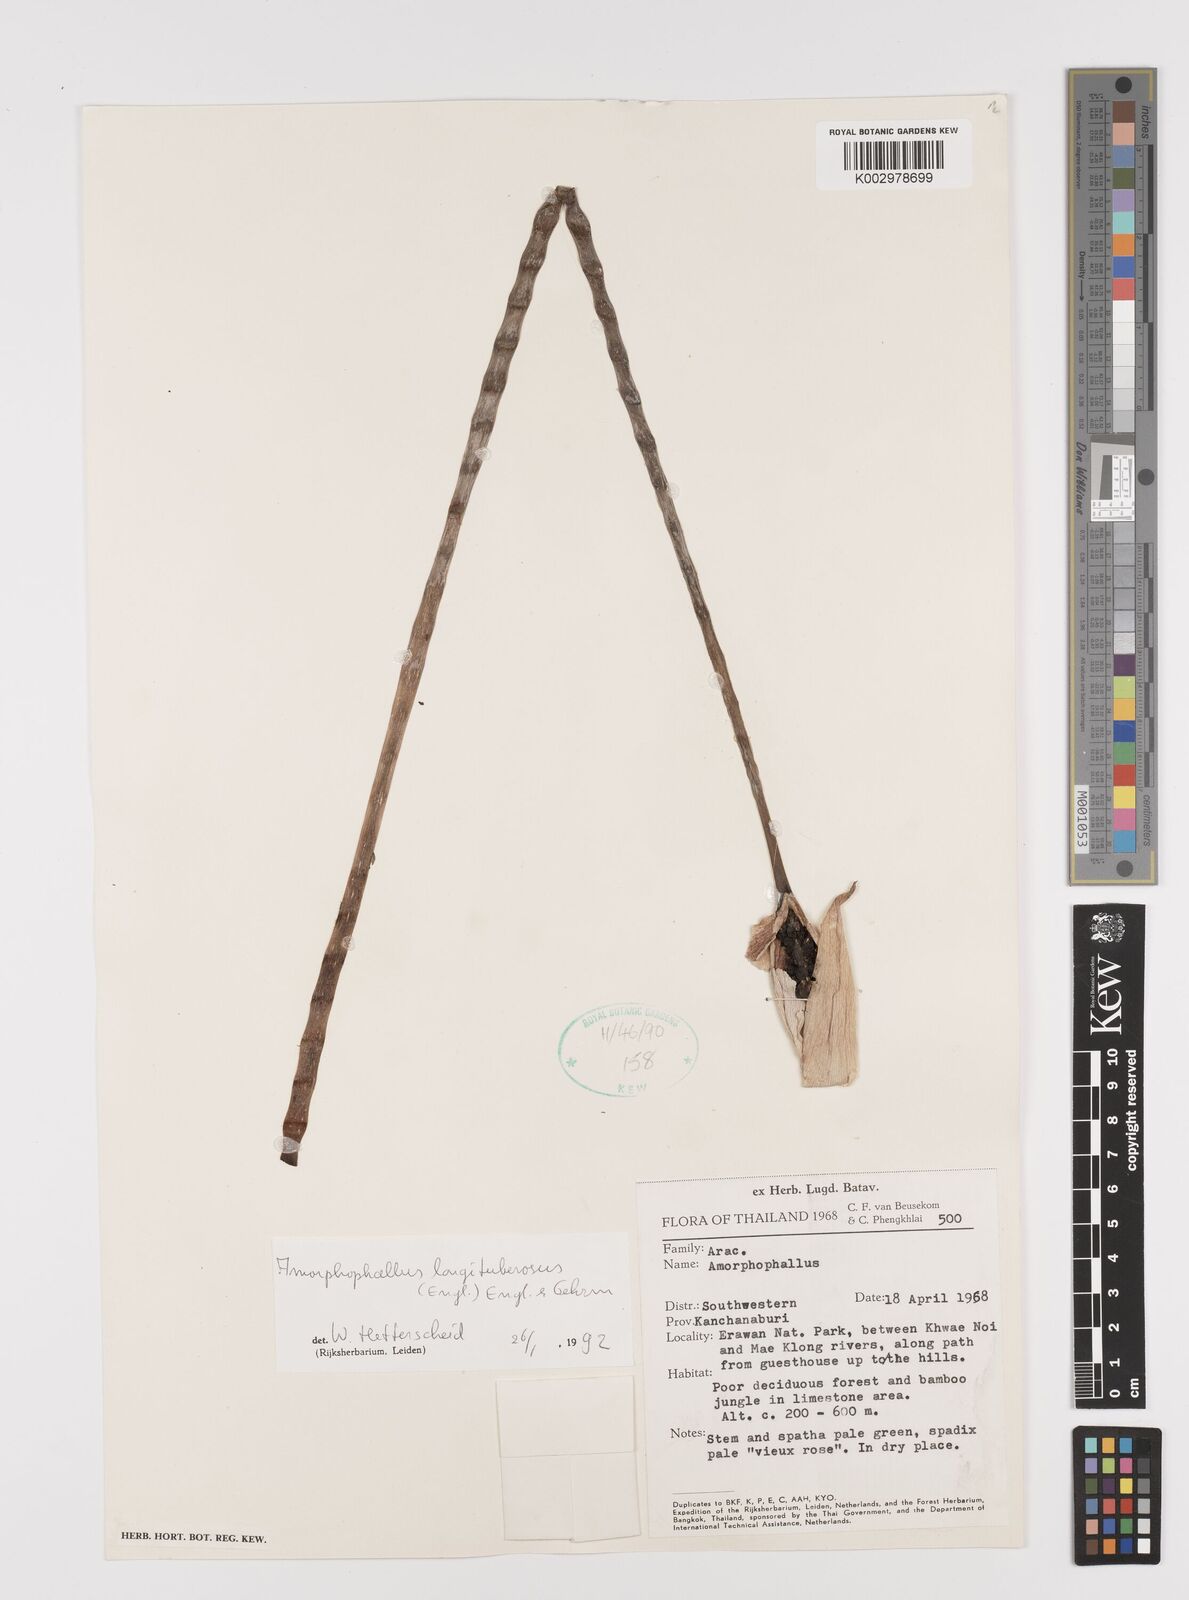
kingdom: Plantae
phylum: Tracheophyta
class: Liliopsida
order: Alismatales
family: Araceae
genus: Amorphophallus
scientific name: Amorphophallus longituberosus
